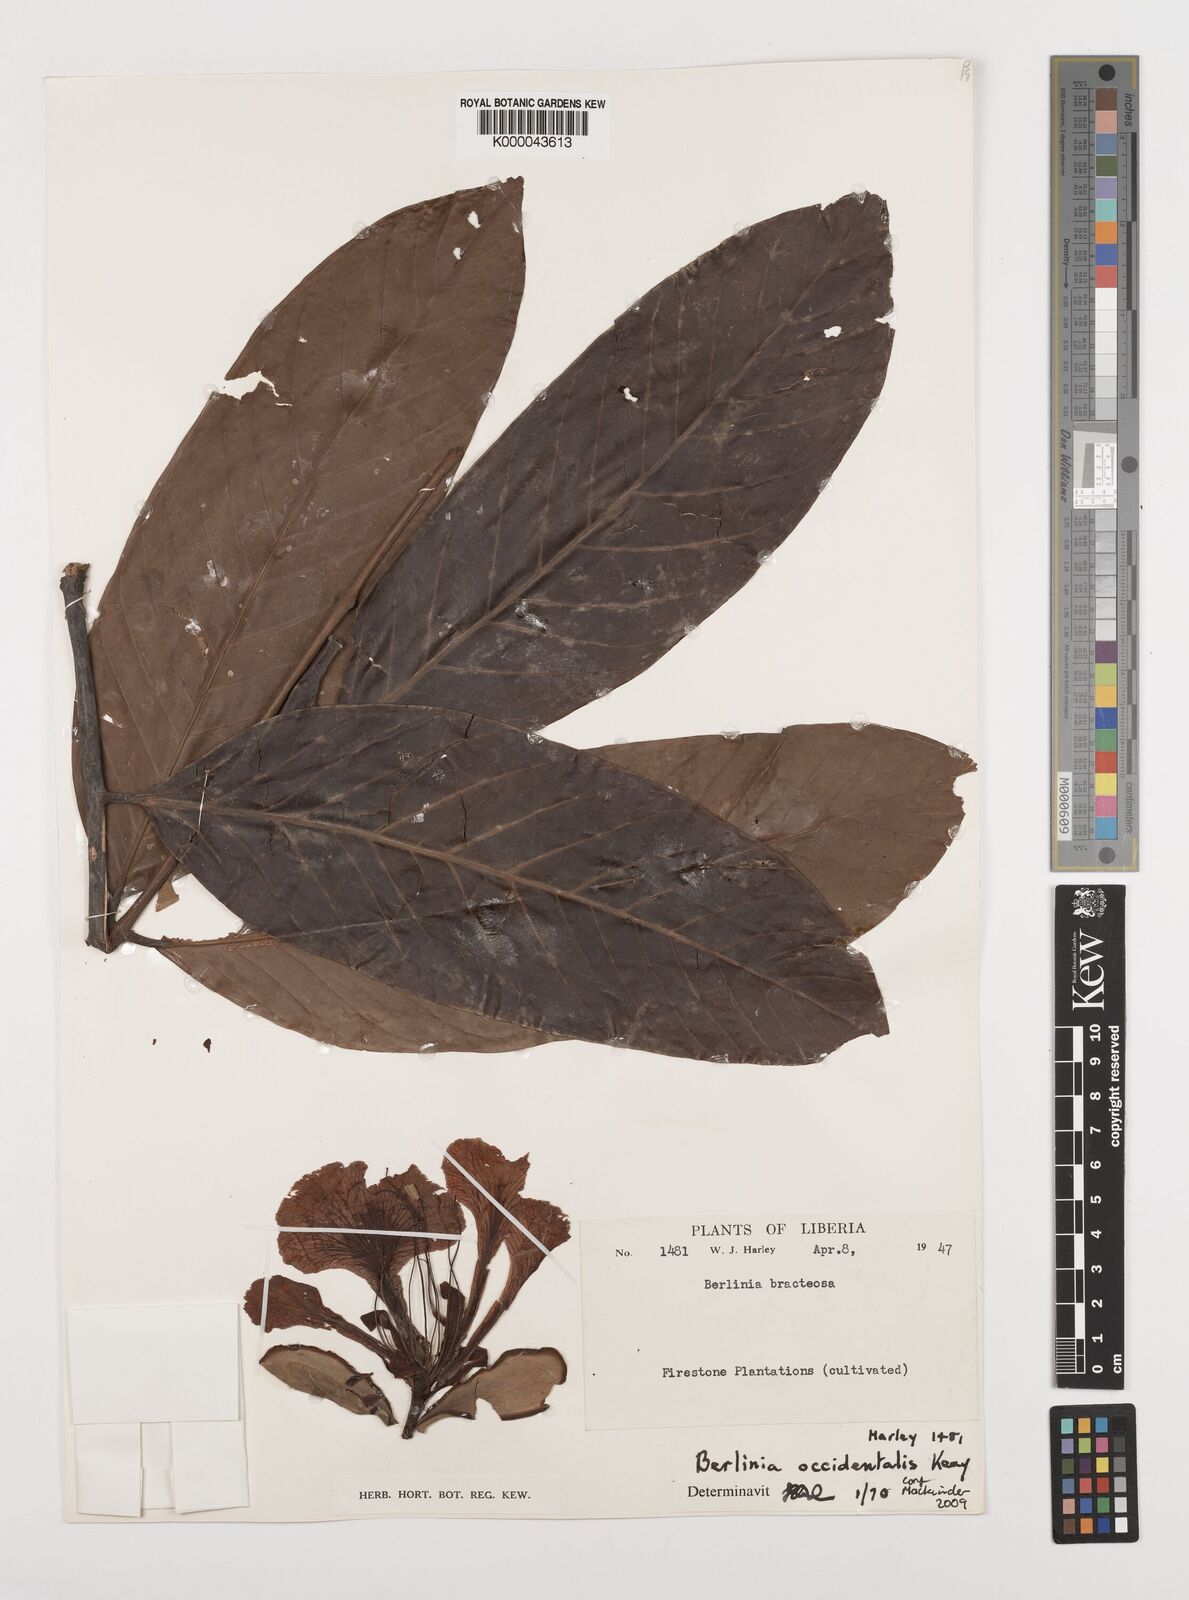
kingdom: Plantae
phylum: Tracheophyta
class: Magnoliopsida
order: Fabales
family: Fabaceae
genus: Berlinia
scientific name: Berlinia occidentalis
